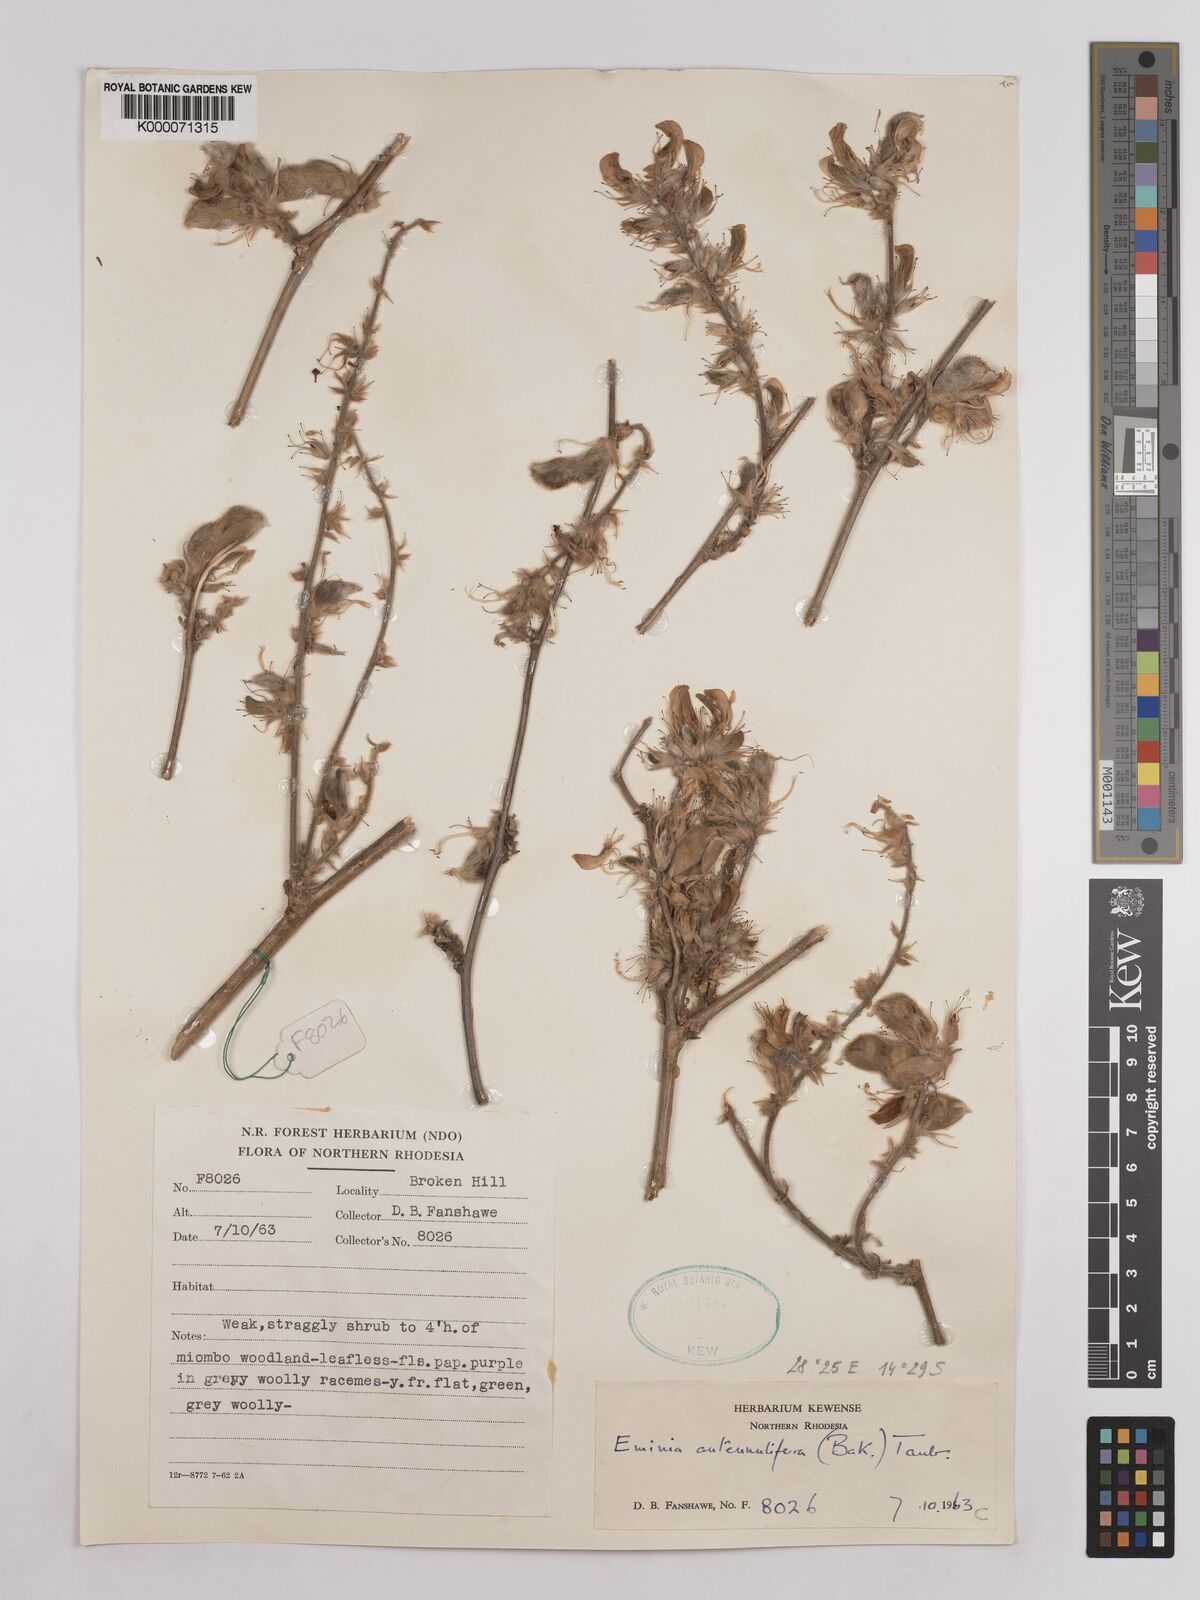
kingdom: Plantae
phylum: Tracheophyta
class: Magnoliopsida
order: Fabales
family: Fabaceae
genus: Eminia
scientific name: Eminia antennulifera
